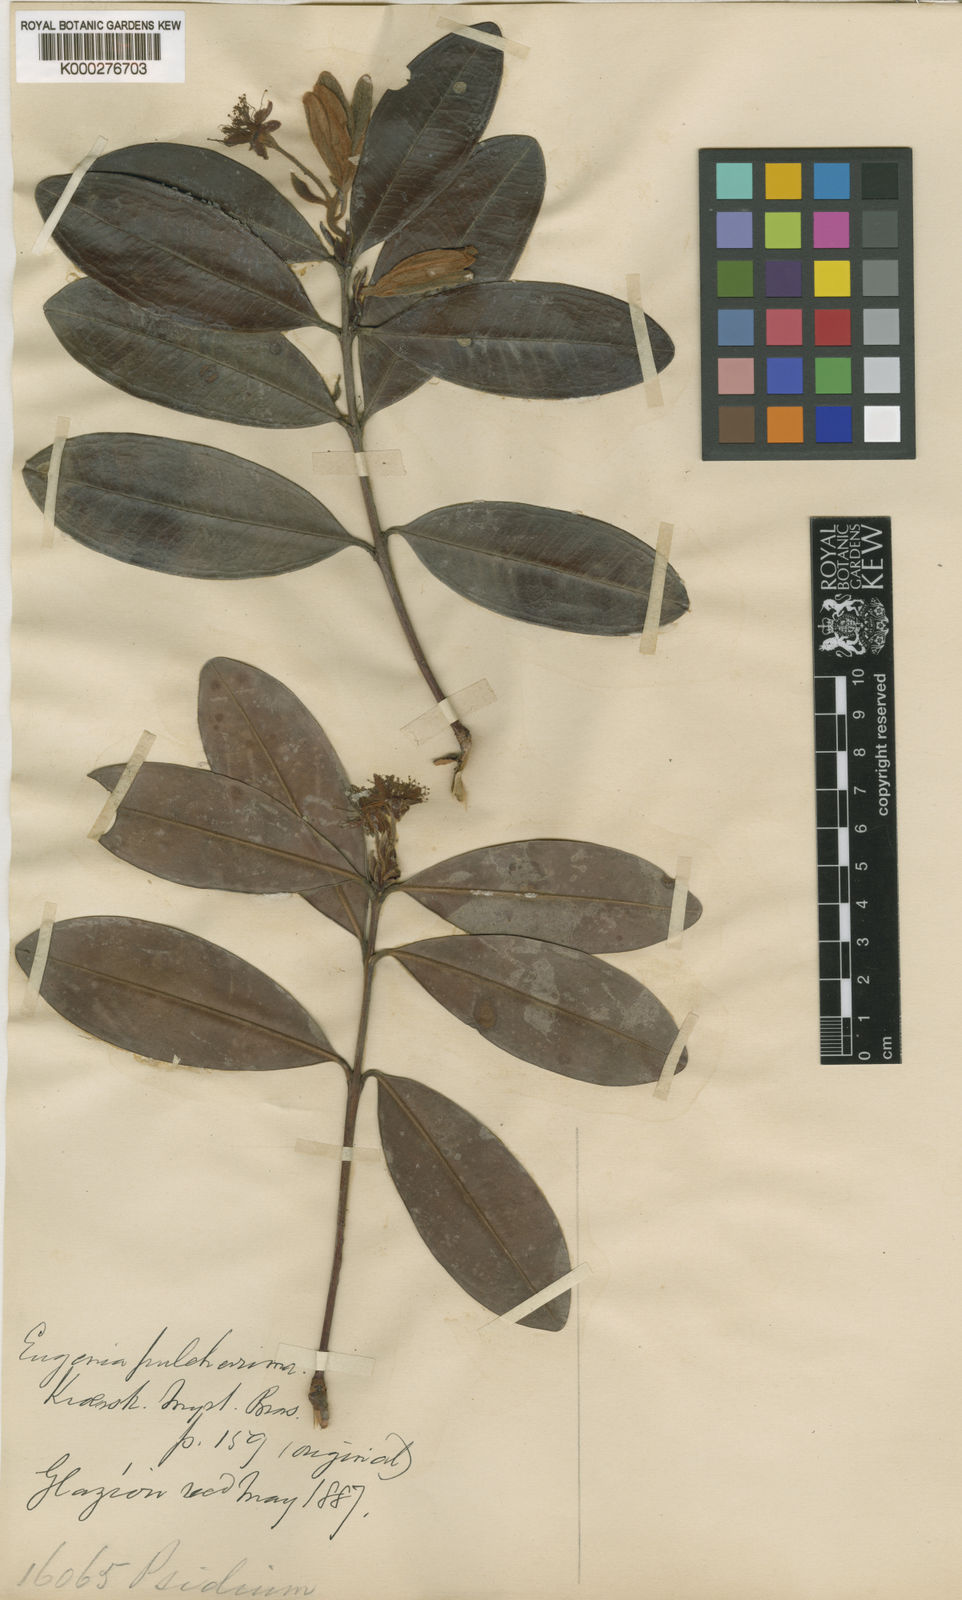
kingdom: Plantae
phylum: Tracheophyta
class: Magnoliopsida
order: Myrtales
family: Myrtaceae
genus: Eugenia
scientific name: Eugenia pulcherrima
